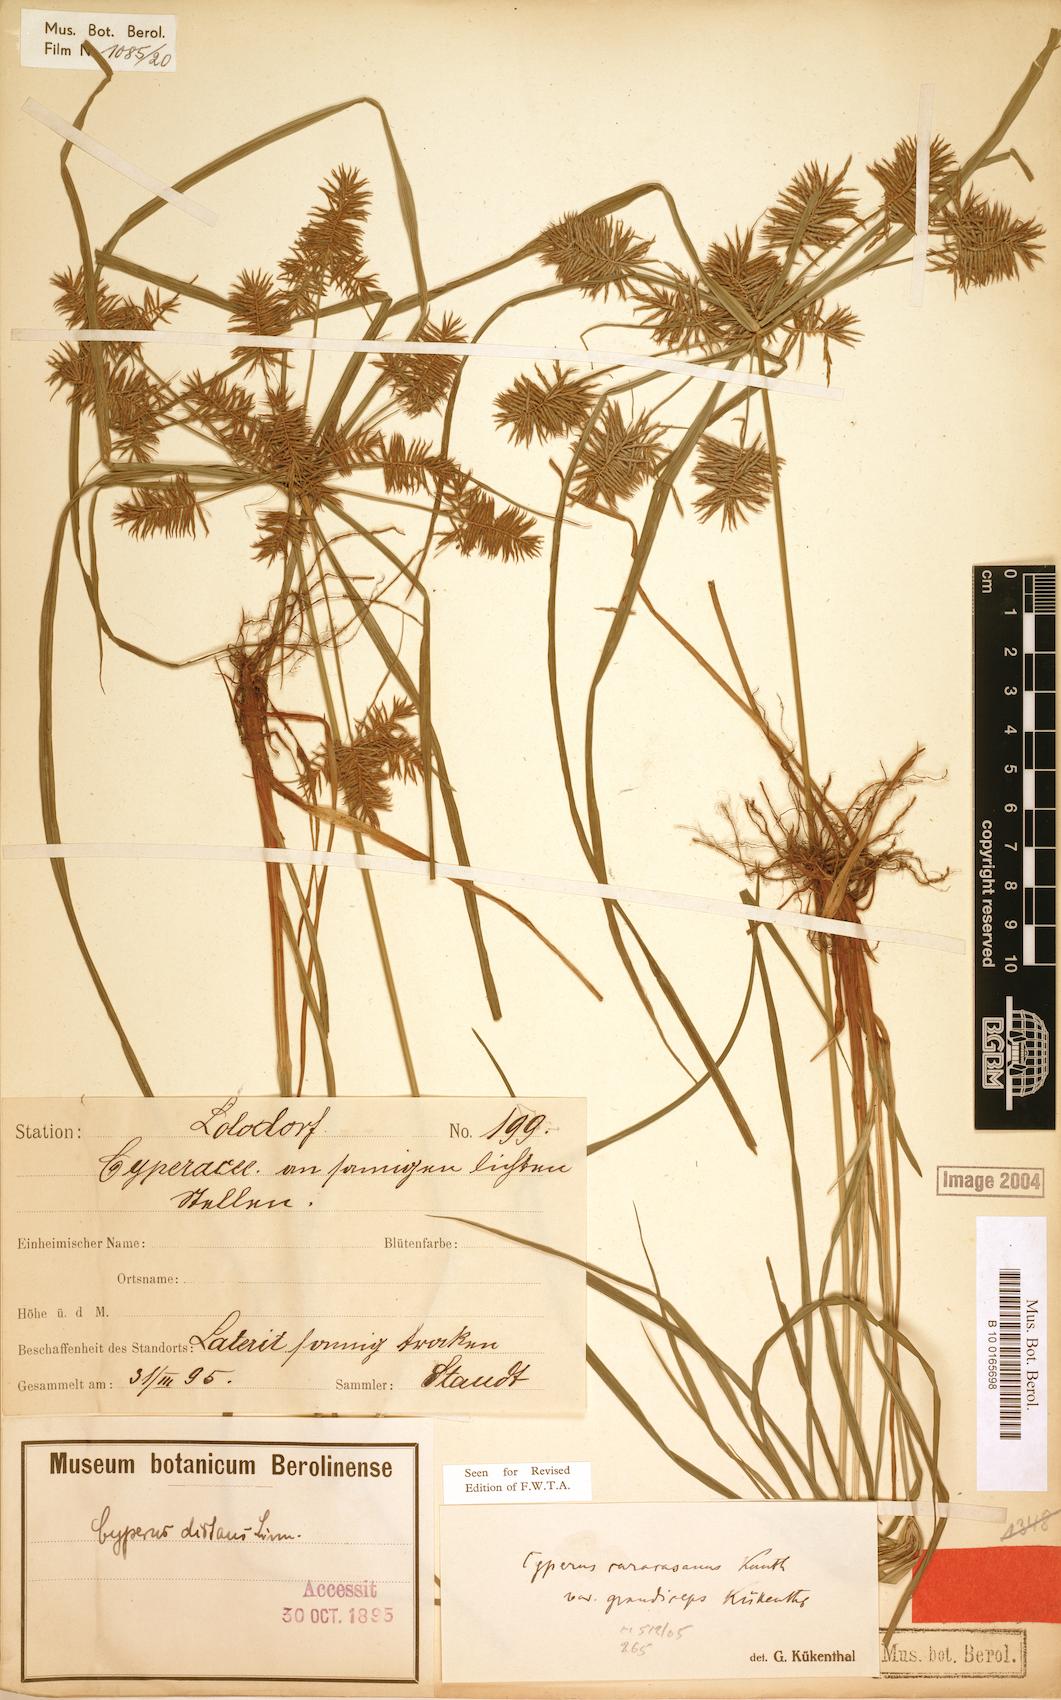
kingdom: Plantae
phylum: Tracheophyta
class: Liliopsida
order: Poales
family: Cyperaceae
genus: Cyperus
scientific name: Cyperus tenuis
